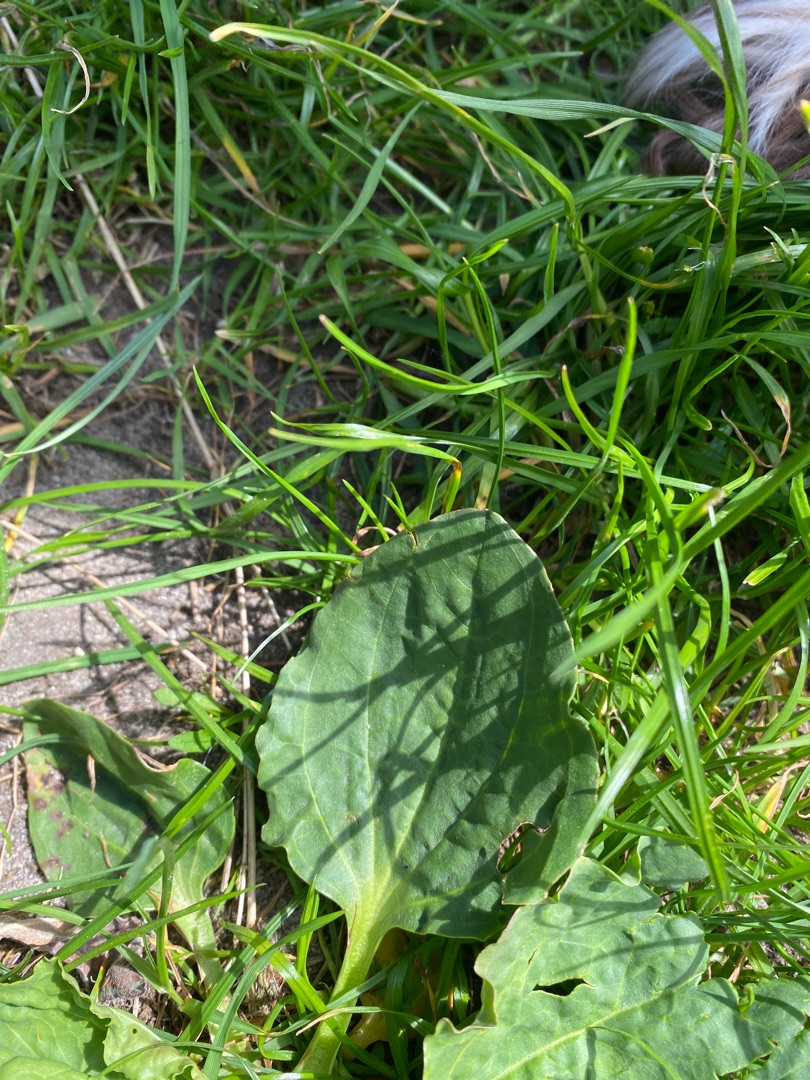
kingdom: Plantae
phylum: Tracheophyta
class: Magnoliopsida
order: Lamiales
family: Plantaginaceae
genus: Plantago
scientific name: Plantago major
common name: Glat vejbred
